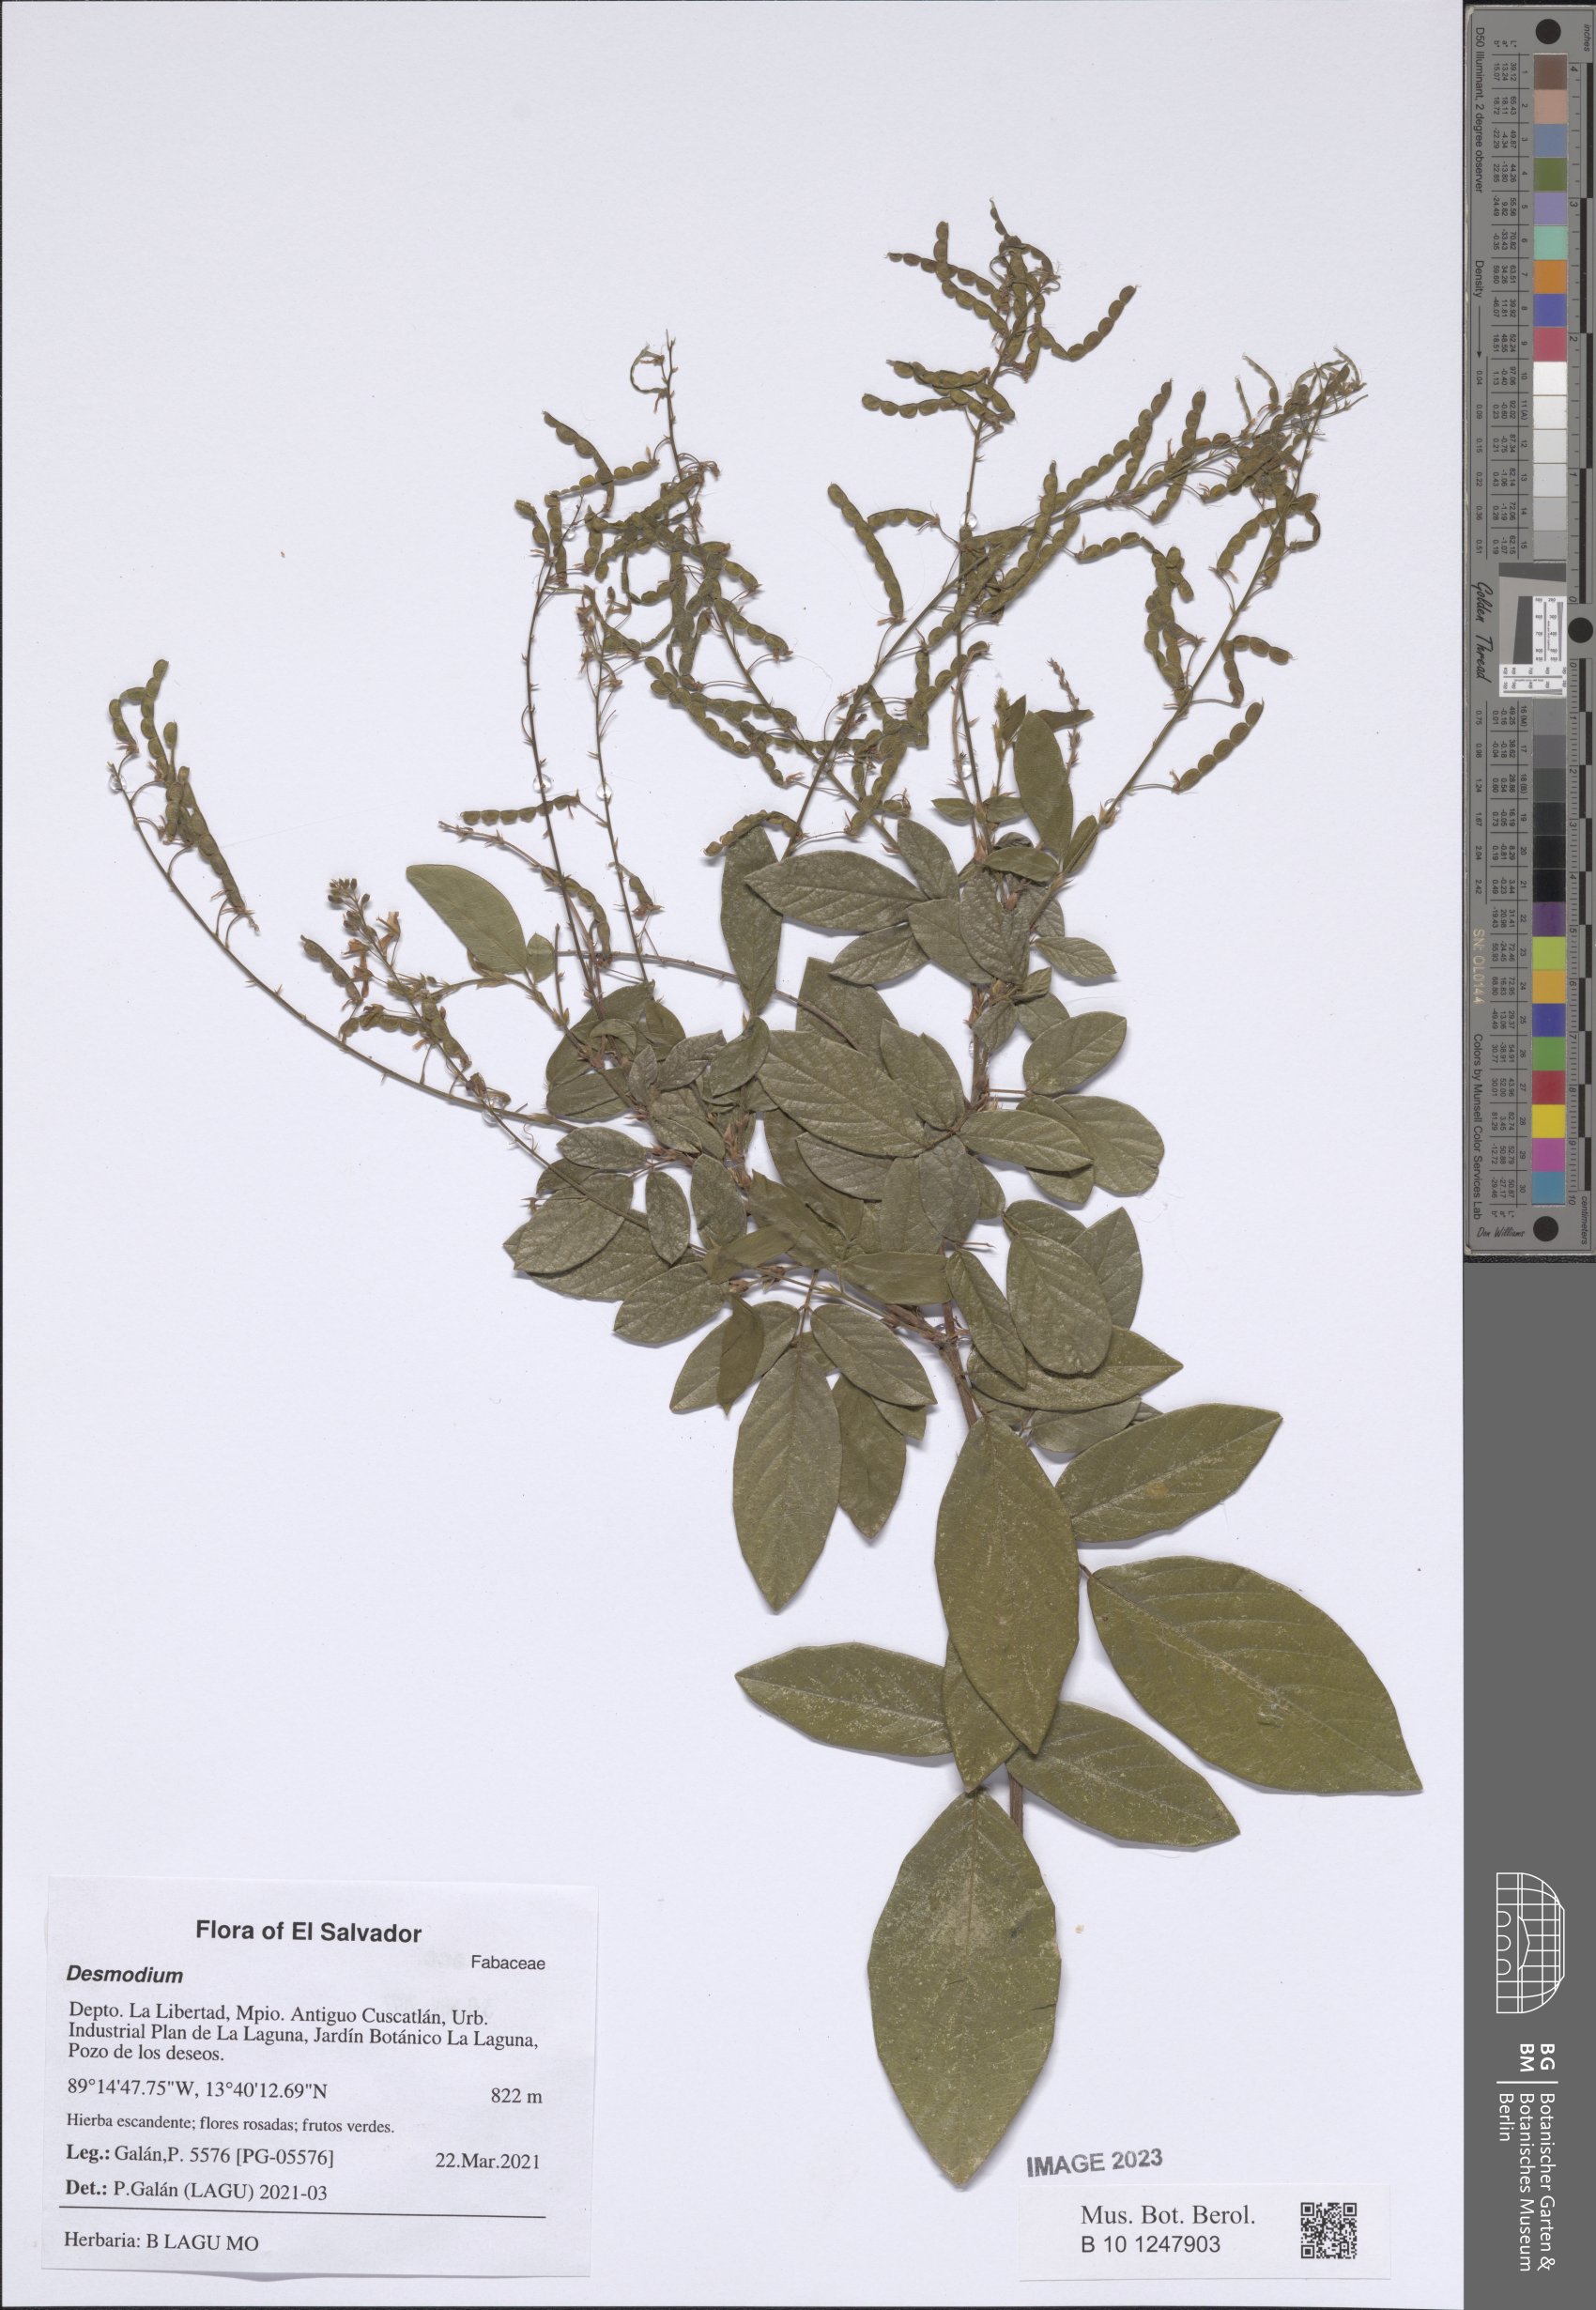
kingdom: Plantae
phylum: Tracheophyta
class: Magnoliopsida
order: Fabales
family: Fabaceae
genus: Desmodium
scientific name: Desmodium
